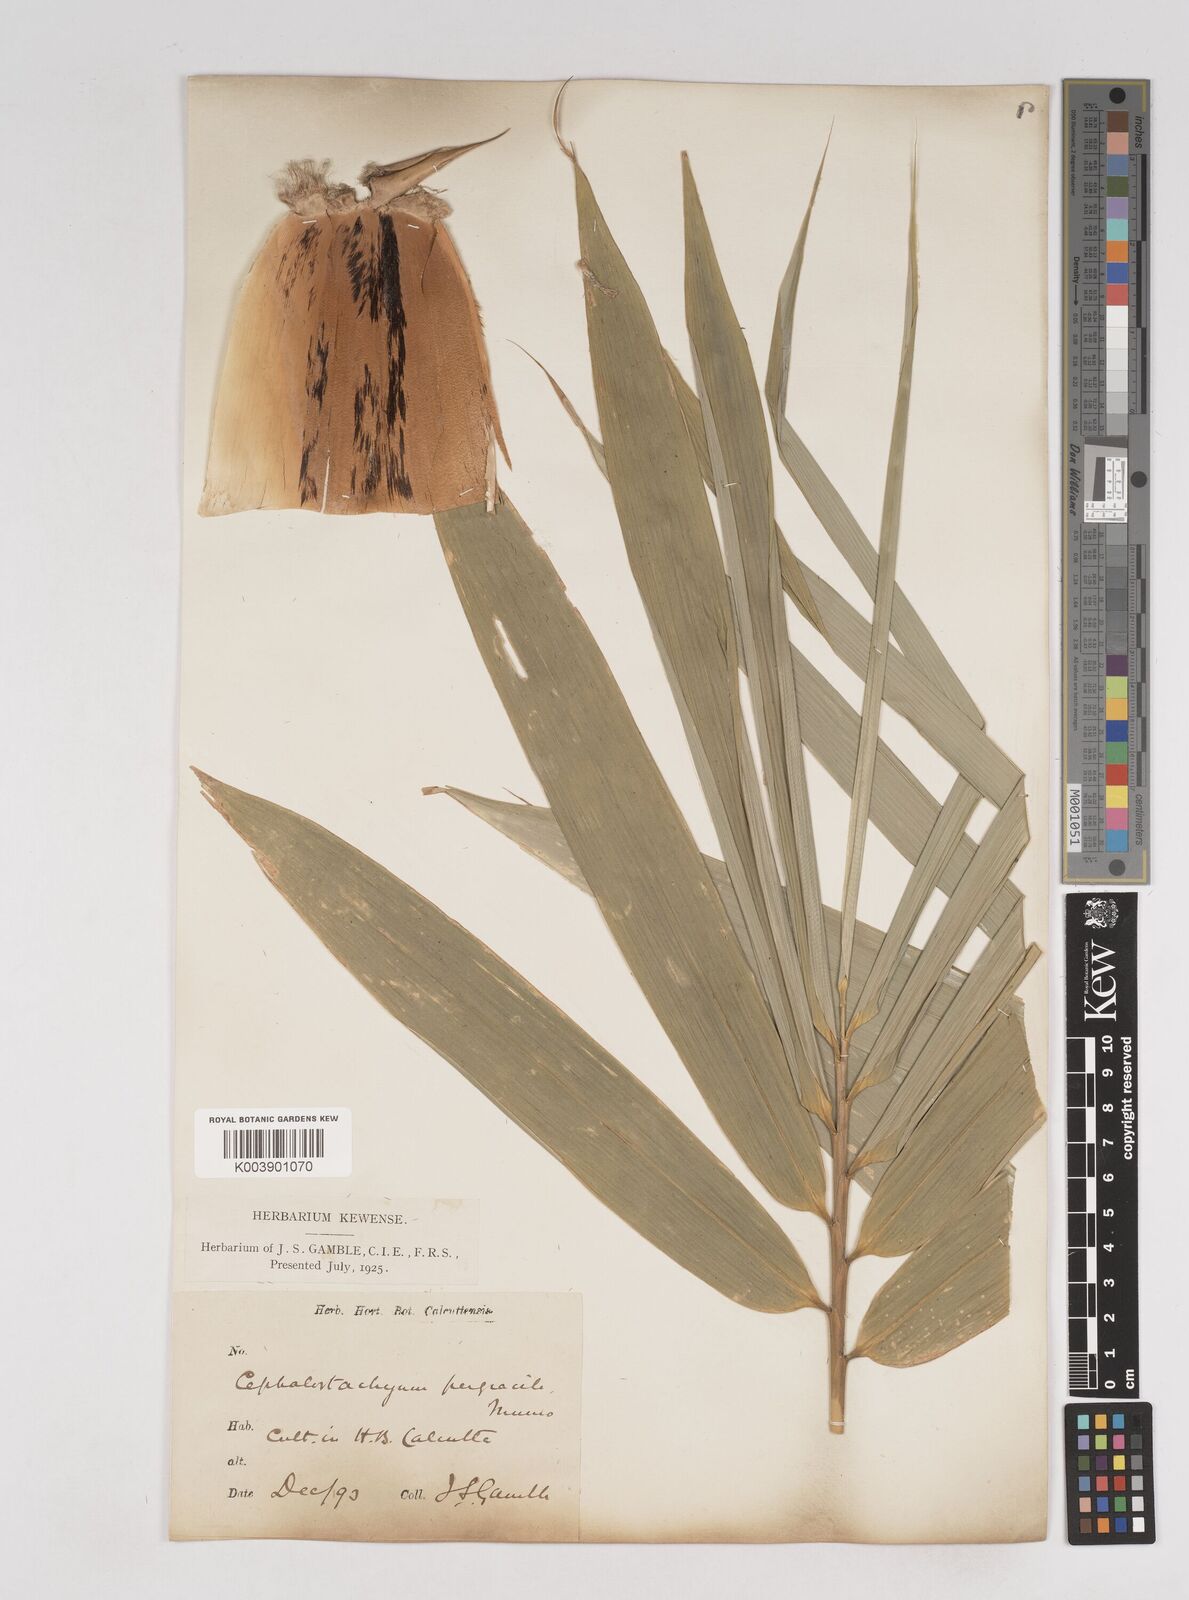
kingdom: Plantae
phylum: Tracheophyta
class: Liliopsida
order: Poales
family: Poaceae
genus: Schizostachyum
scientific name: Schizostachyum pergracile
